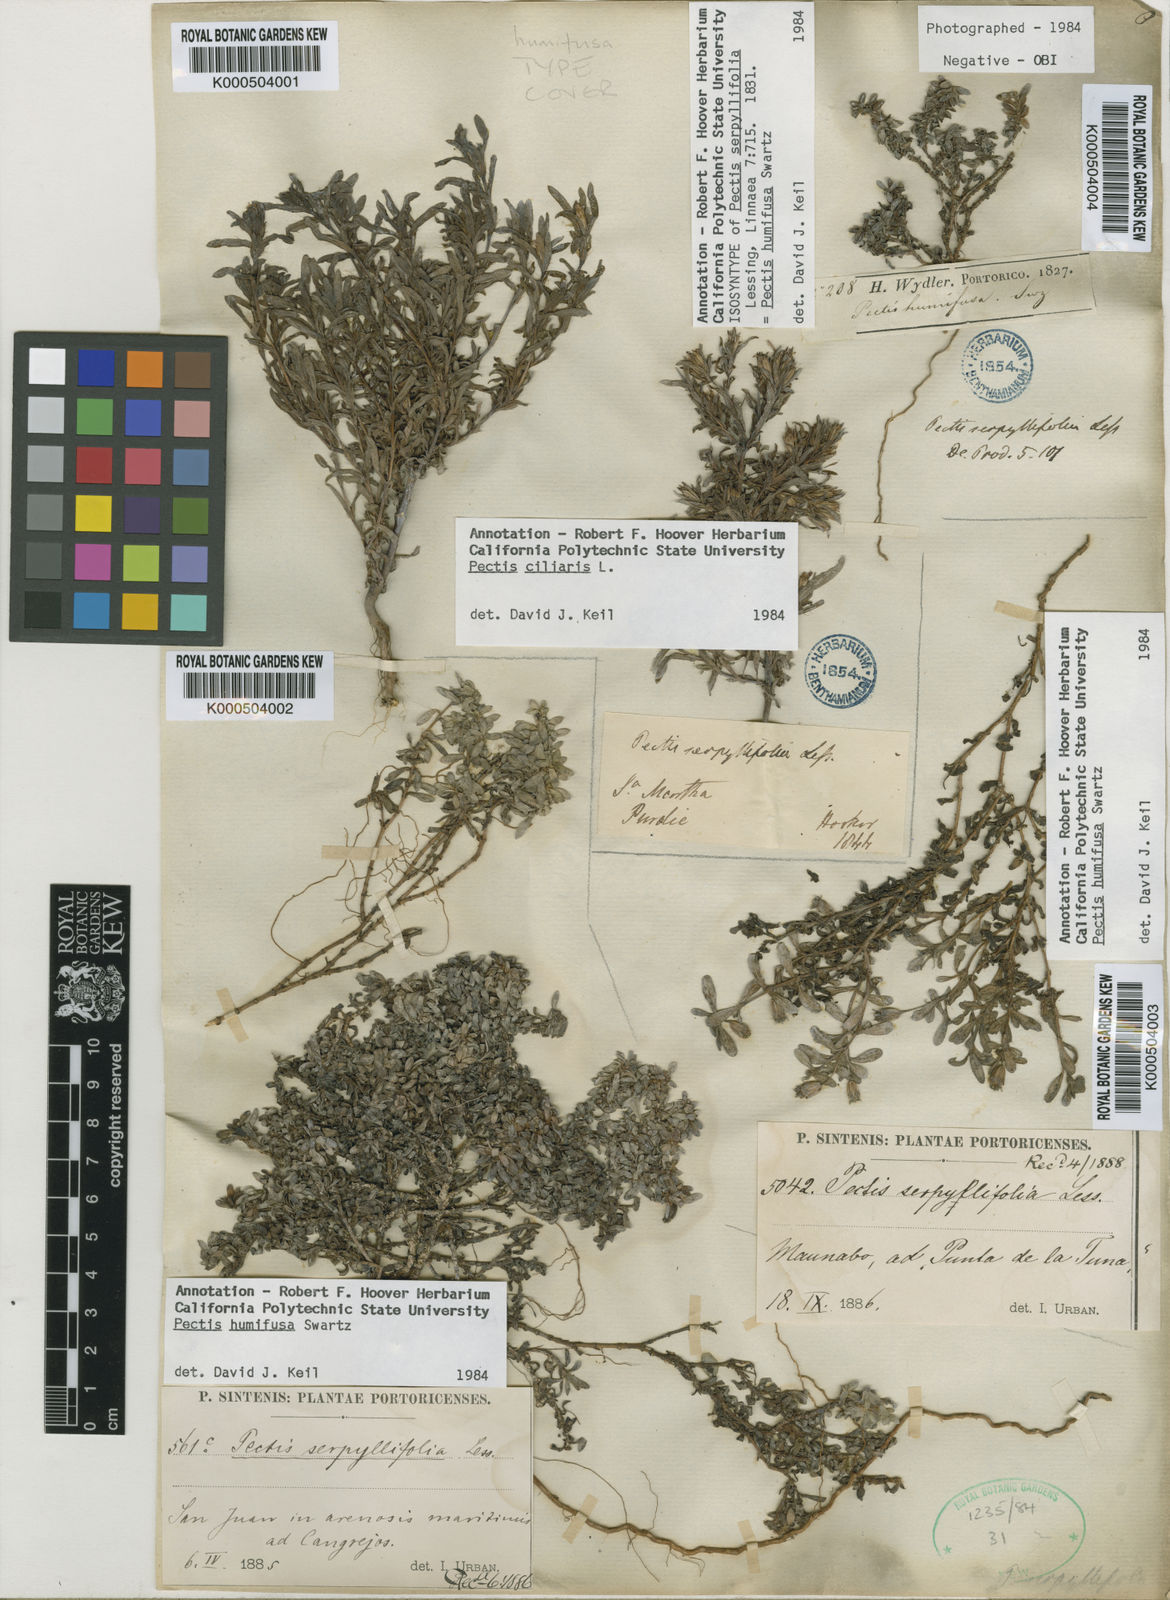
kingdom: Plantae
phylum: Tracheophyta
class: Magnoliopsida
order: Asterales
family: Asteraceae
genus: Pectis
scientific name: Pectis humifusa
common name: Yerba de san juan
